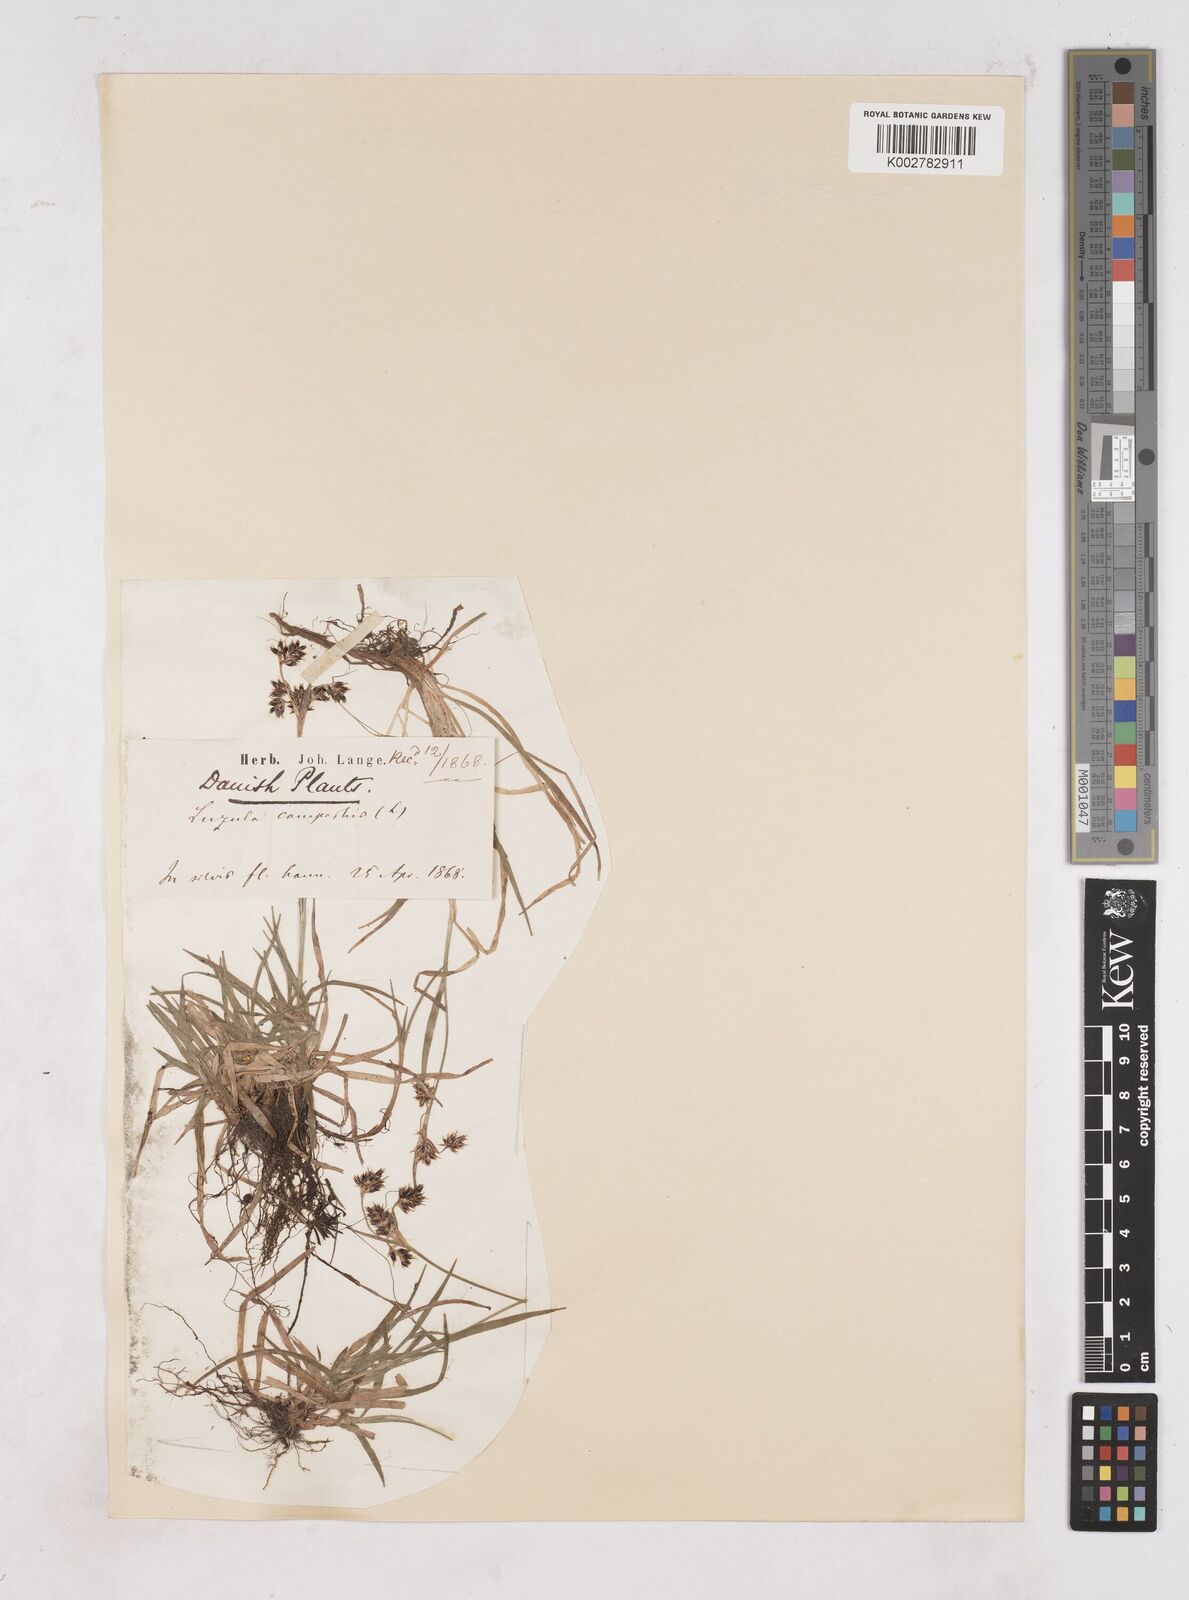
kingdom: Plantae
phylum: Tracheophyta
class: Liliopsida
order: Poales
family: Juncaceae
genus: Luzula
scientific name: Luzula campestris
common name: Field wood-rush
